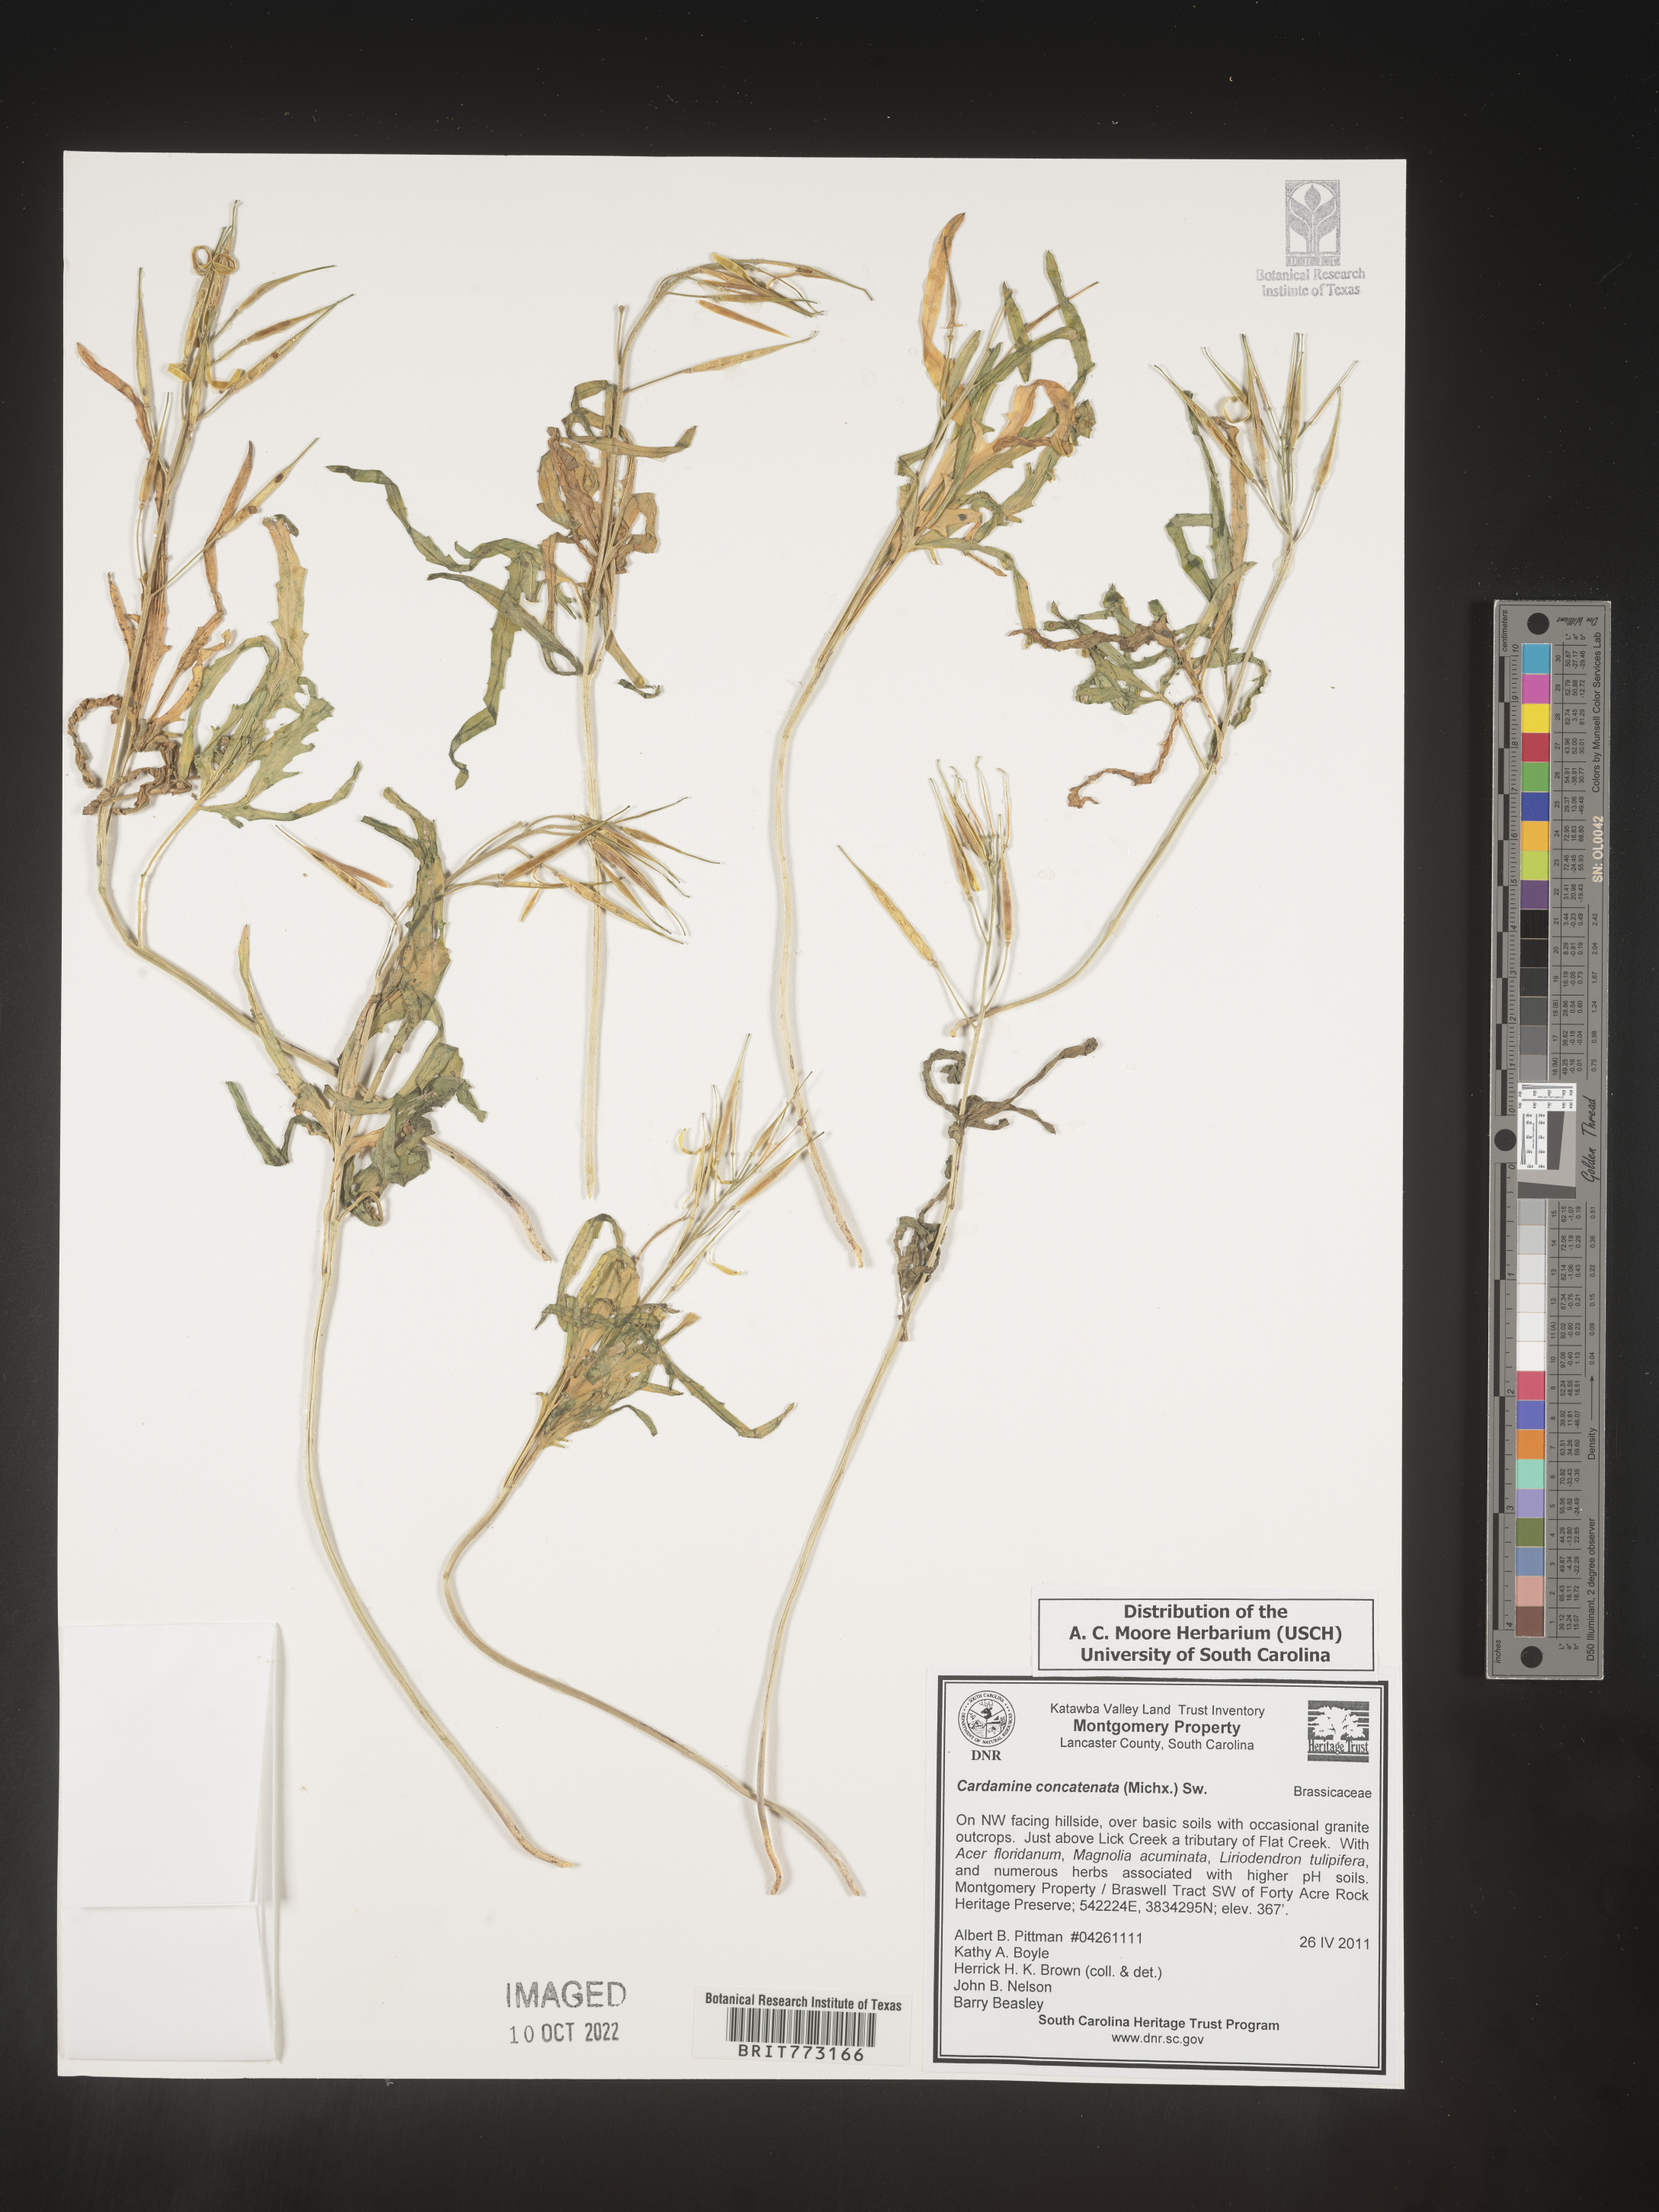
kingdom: Plantae
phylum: Tracheophyta
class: Magnoliopsida
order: Brassicales
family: Brassicaceae
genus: Cardamine
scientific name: Cardamine
